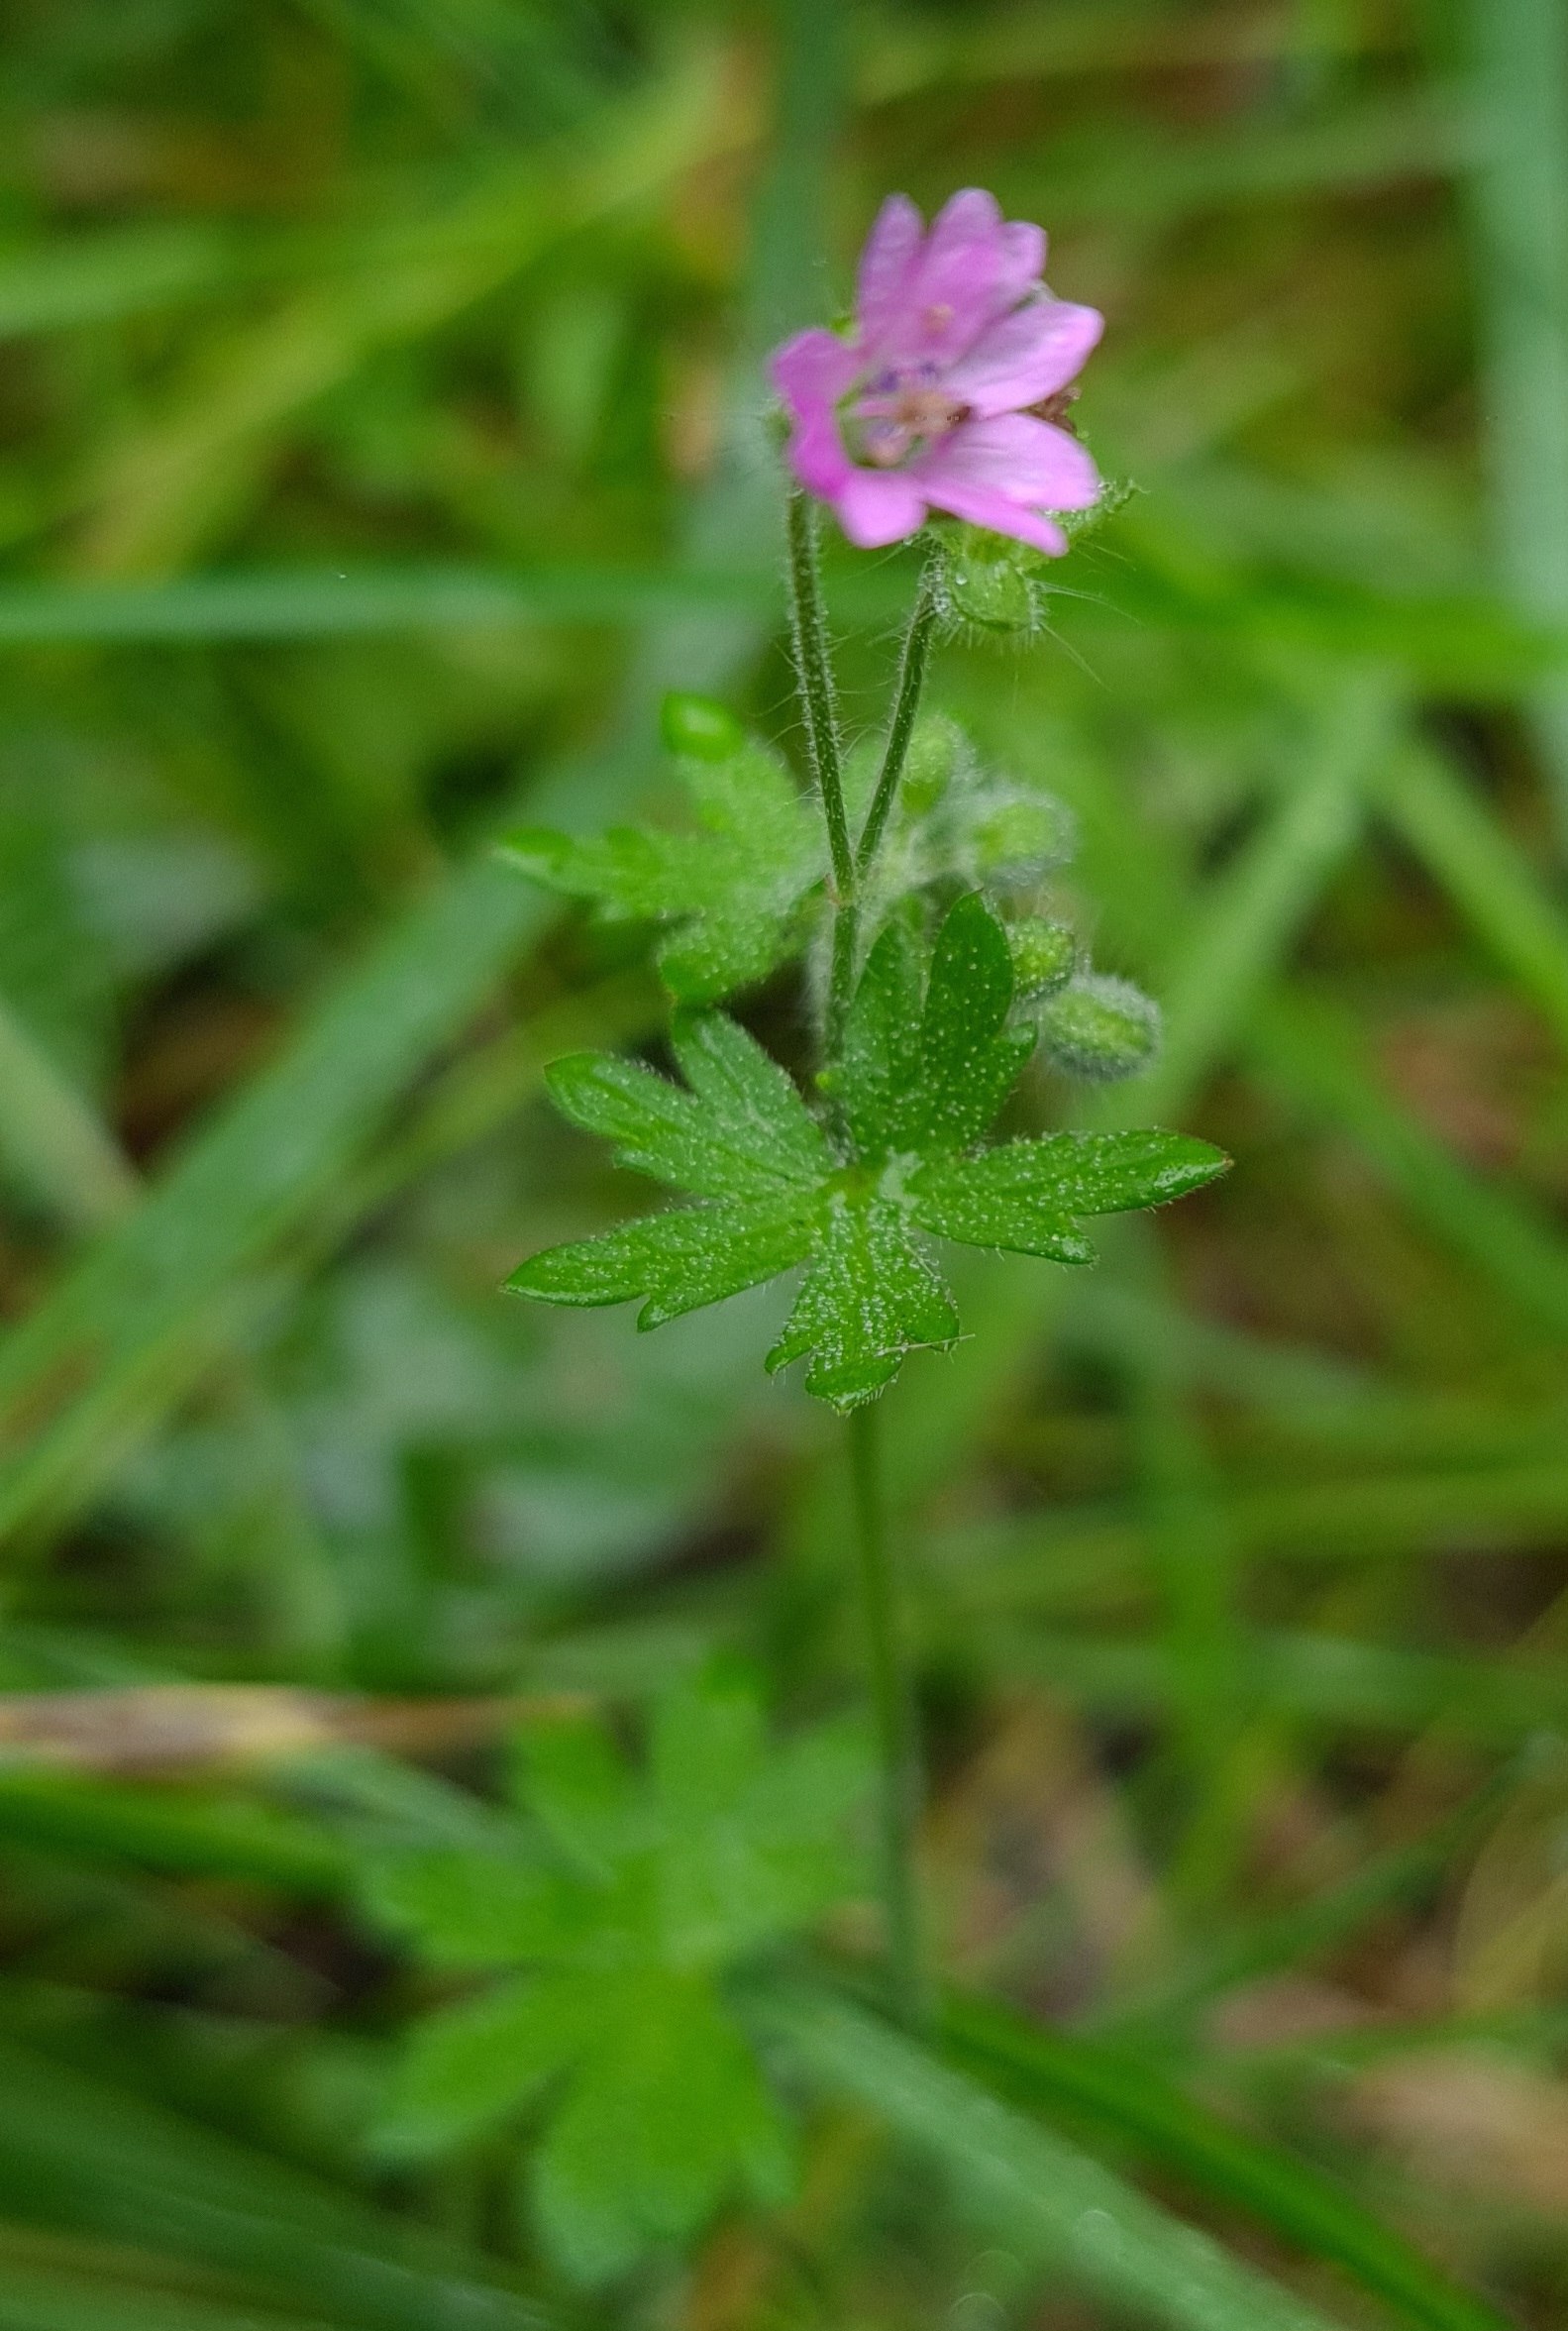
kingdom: Plantae
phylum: Tracheophyta
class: Magnoliopsida
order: Geraniales
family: Geraniaceae
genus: Geranium
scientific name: Geranium molle
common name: Blød storkenæb
